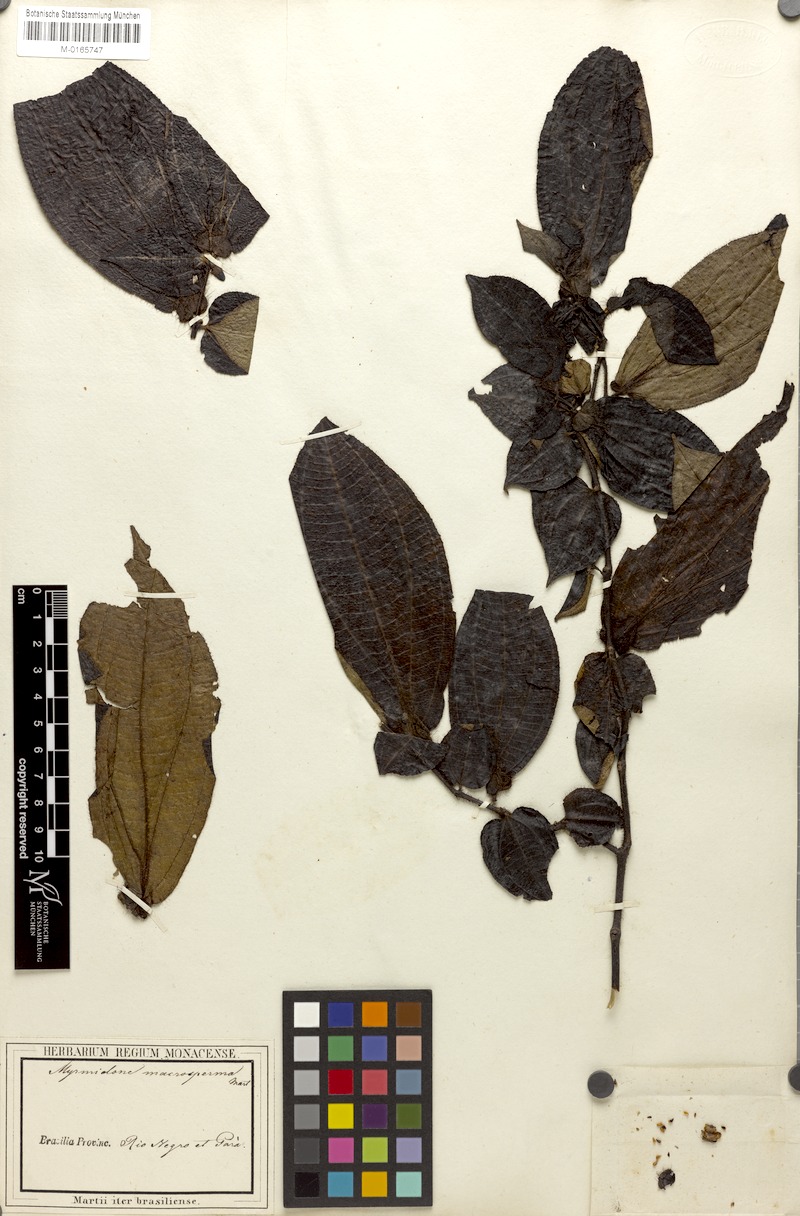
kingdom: Plantae
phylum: Tracheophyta
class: Magnoliopsida
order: Myrtales
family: Melastomataceae
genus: Miconia
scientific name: Miconia macrosperma
